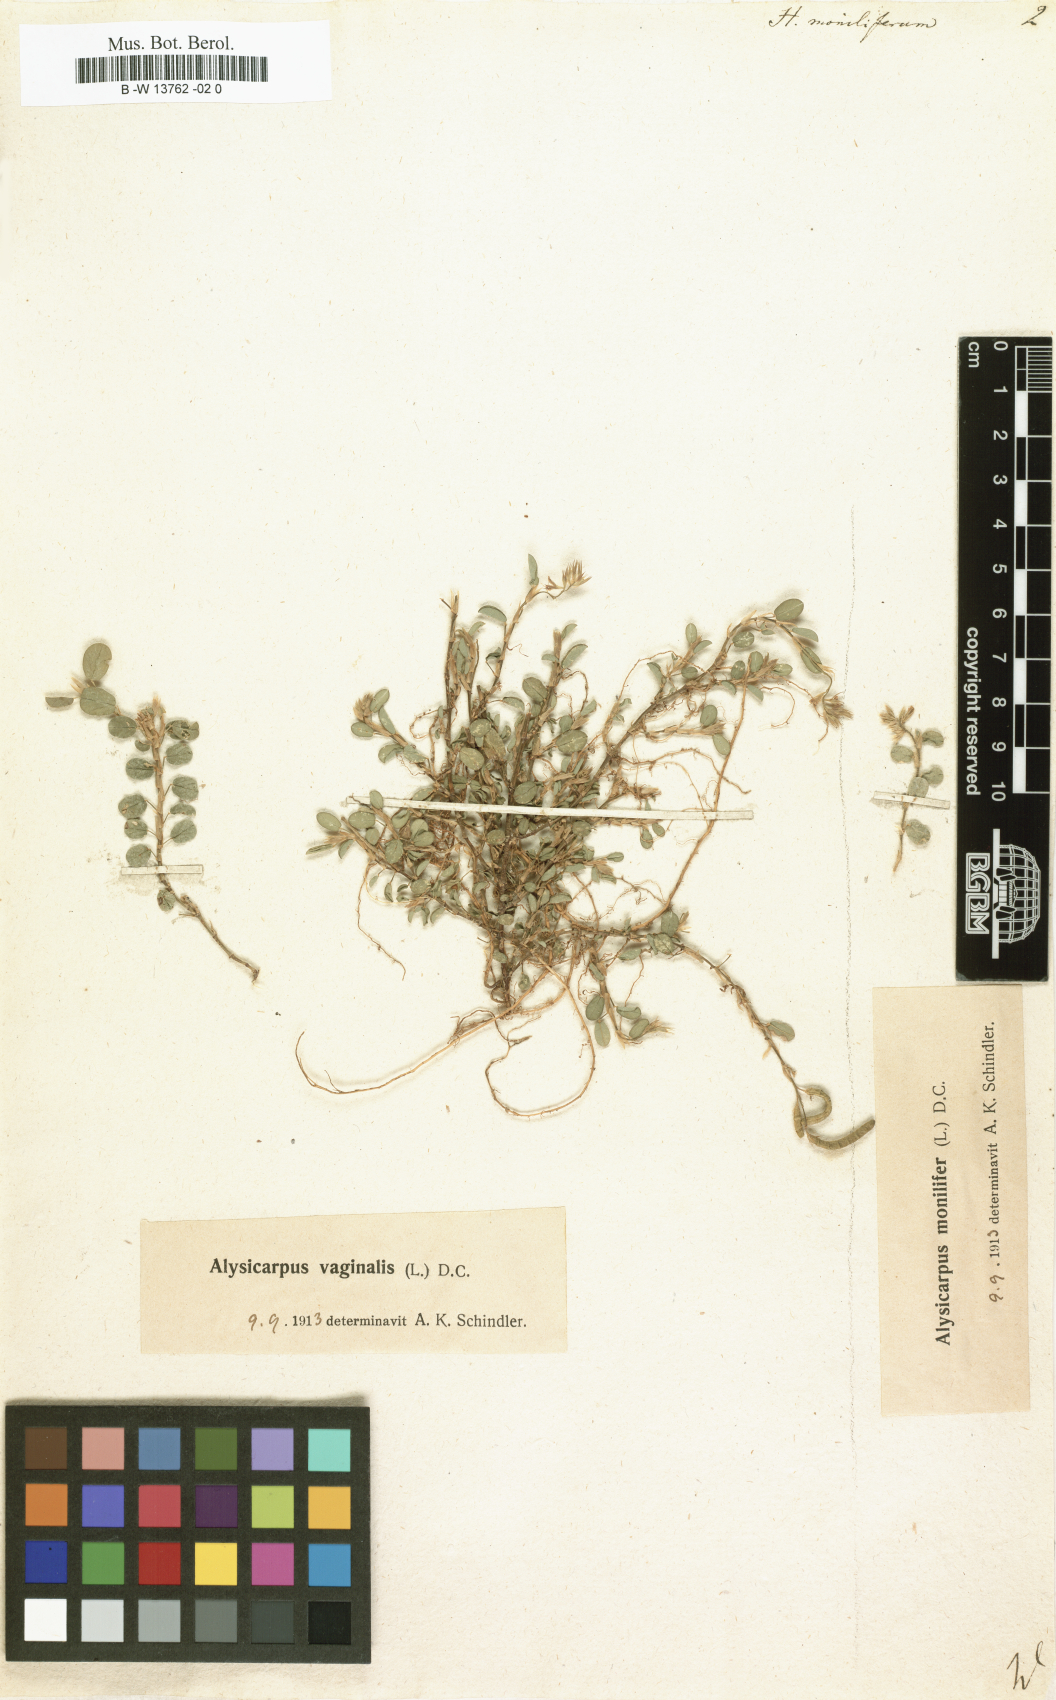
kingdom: Plantae
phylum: Tracheophyta
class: Magnoliopsida
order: Fabales
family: Fabaceae
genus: Alysicarpus
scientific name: Alysicarpus monilifer
